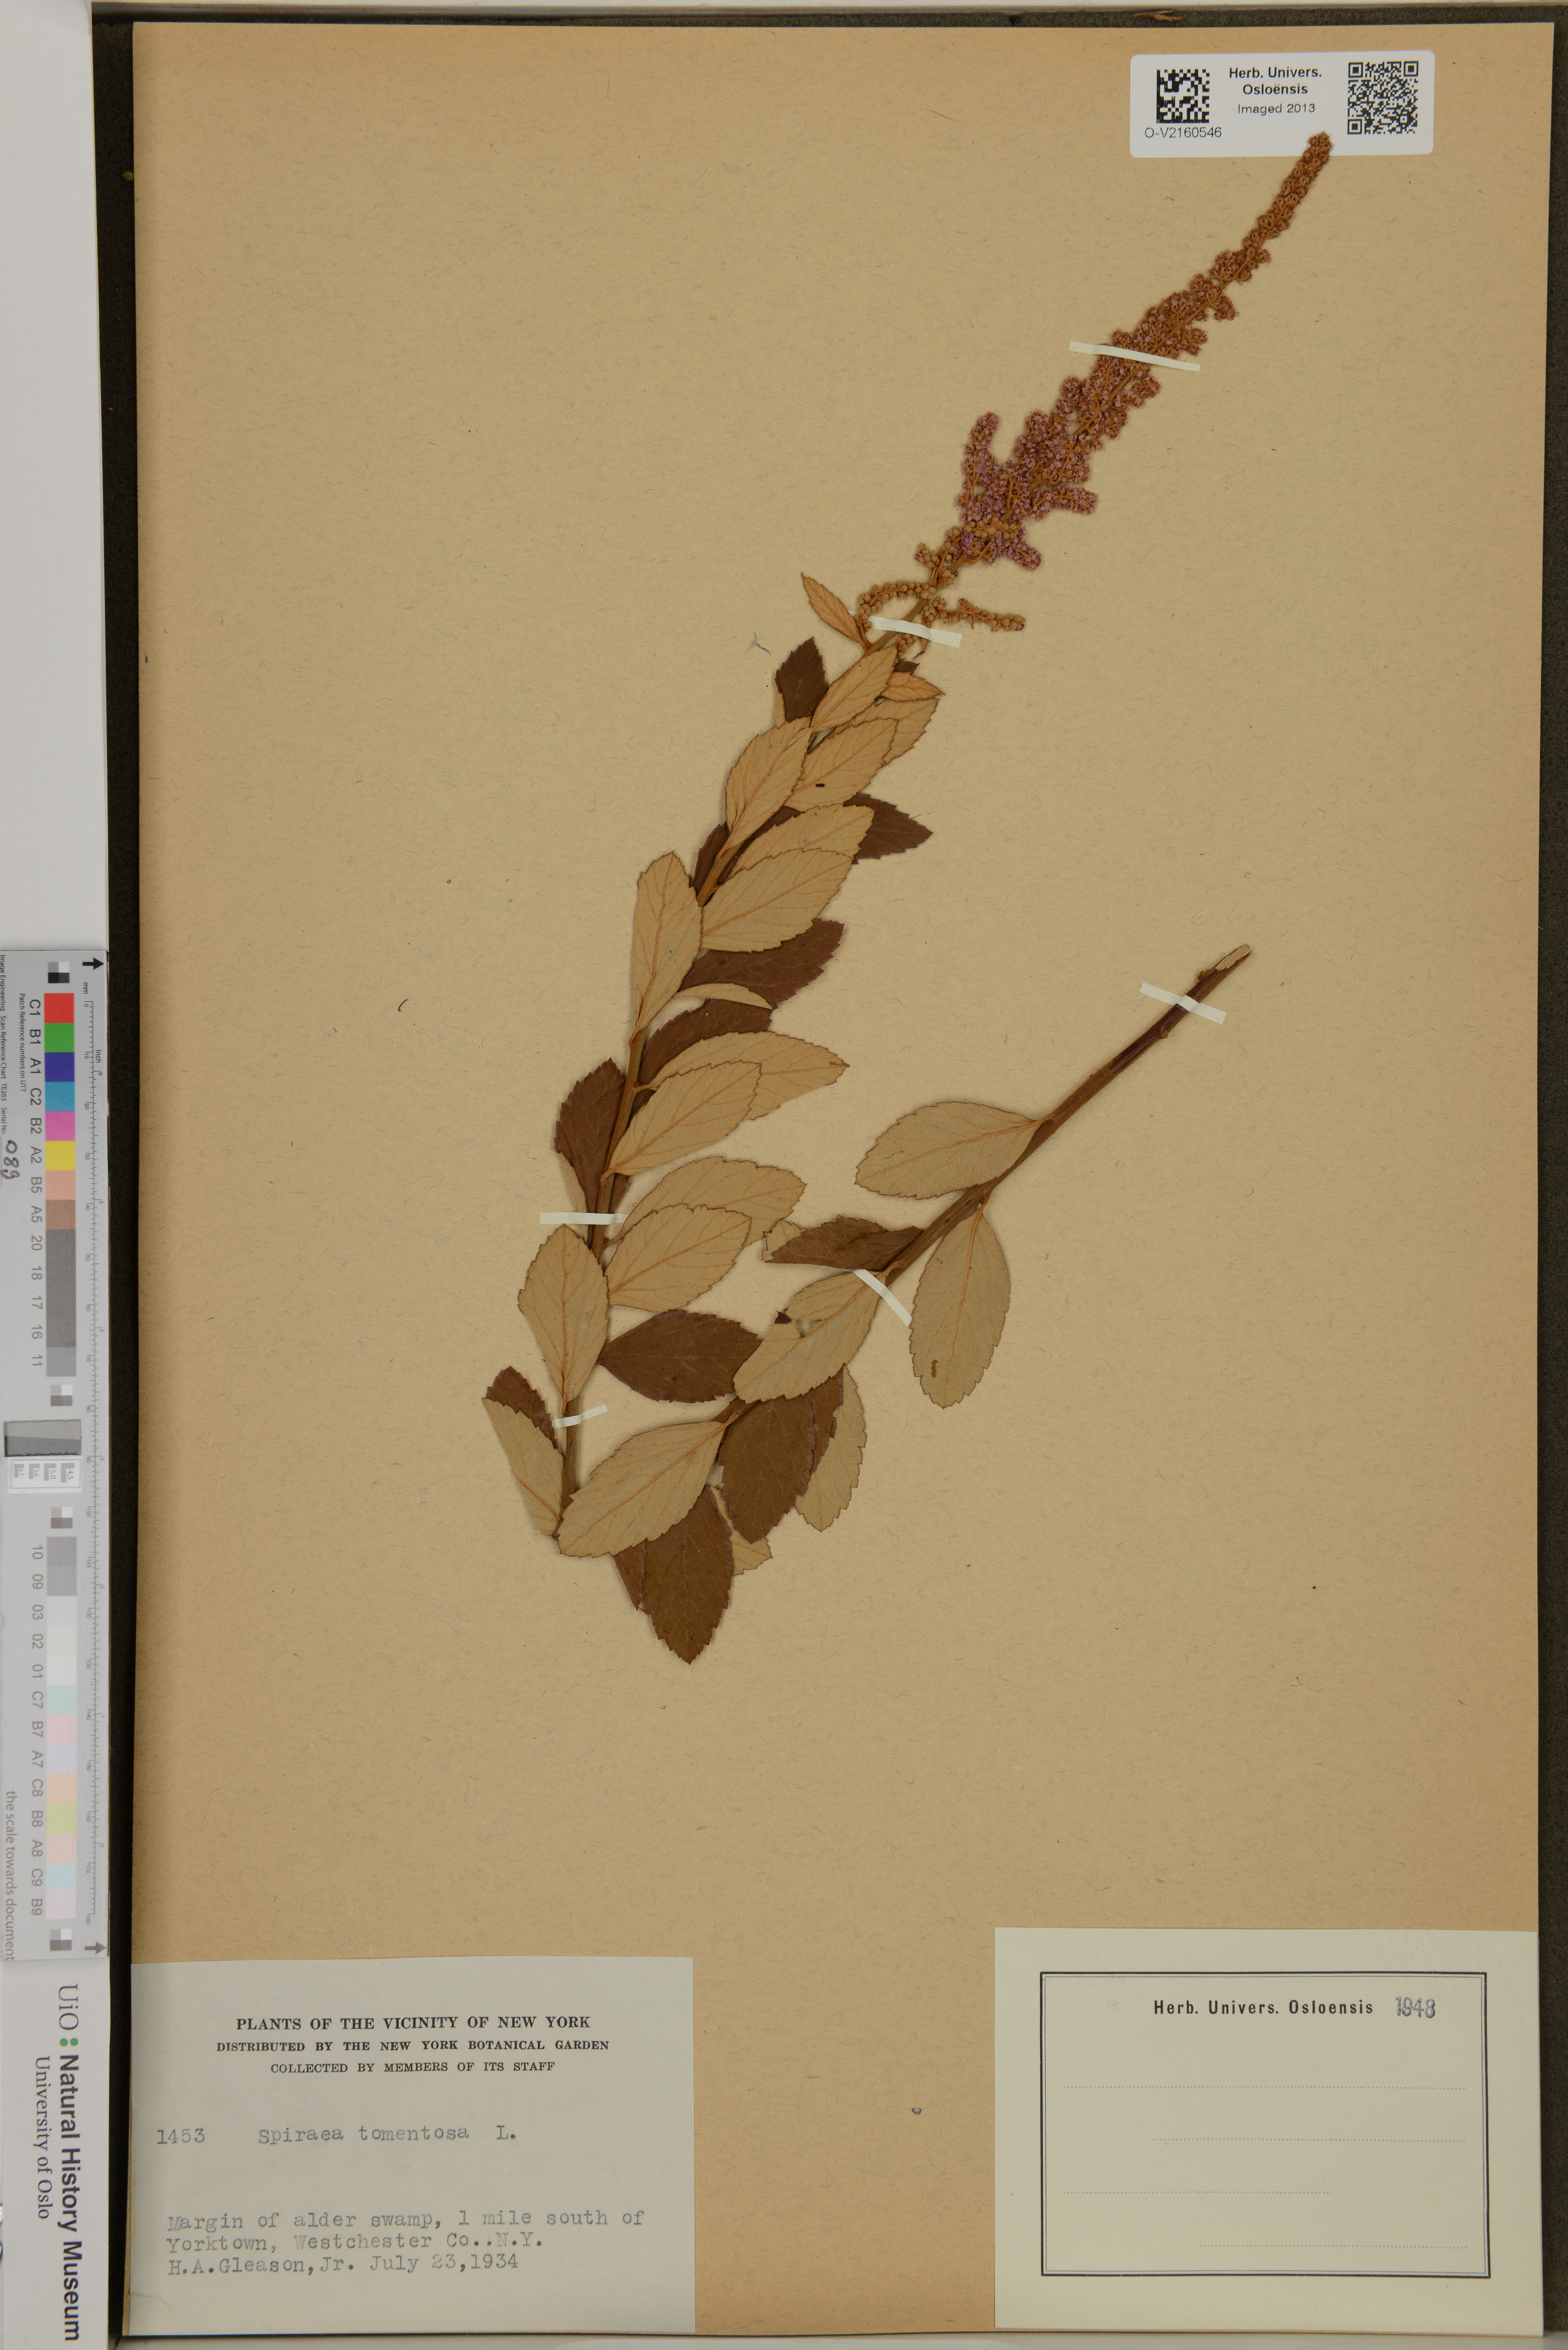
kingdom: Plantae
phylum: Tracheophyta
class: Magnoliopsida
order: Rosales
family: Rosaceae
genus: Spiraea
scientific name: Spiraea tomentosa
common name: Hardhack
